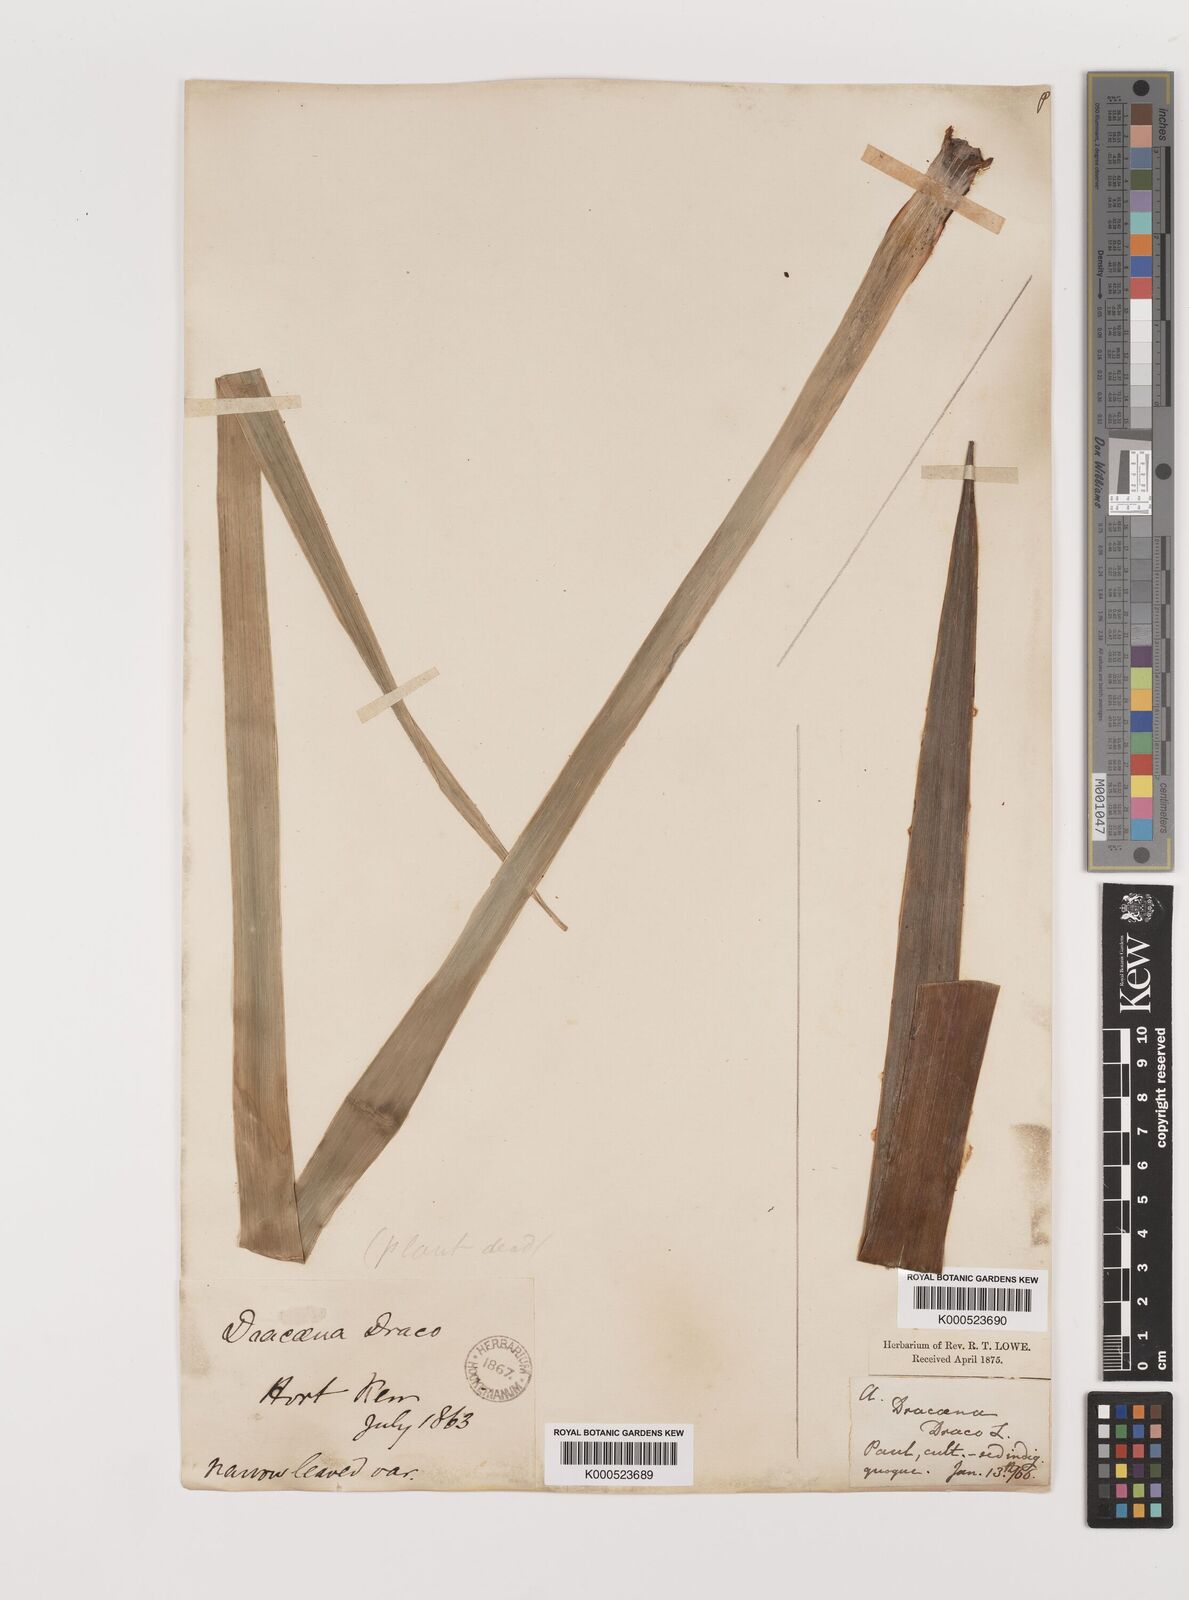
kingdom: Plantae
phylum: Tracheophyta
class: Liliopsida
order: Asparagales
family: Asparagaceae
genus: Dracaena
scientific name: Dracaena draco
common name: Canary island dragon tree
